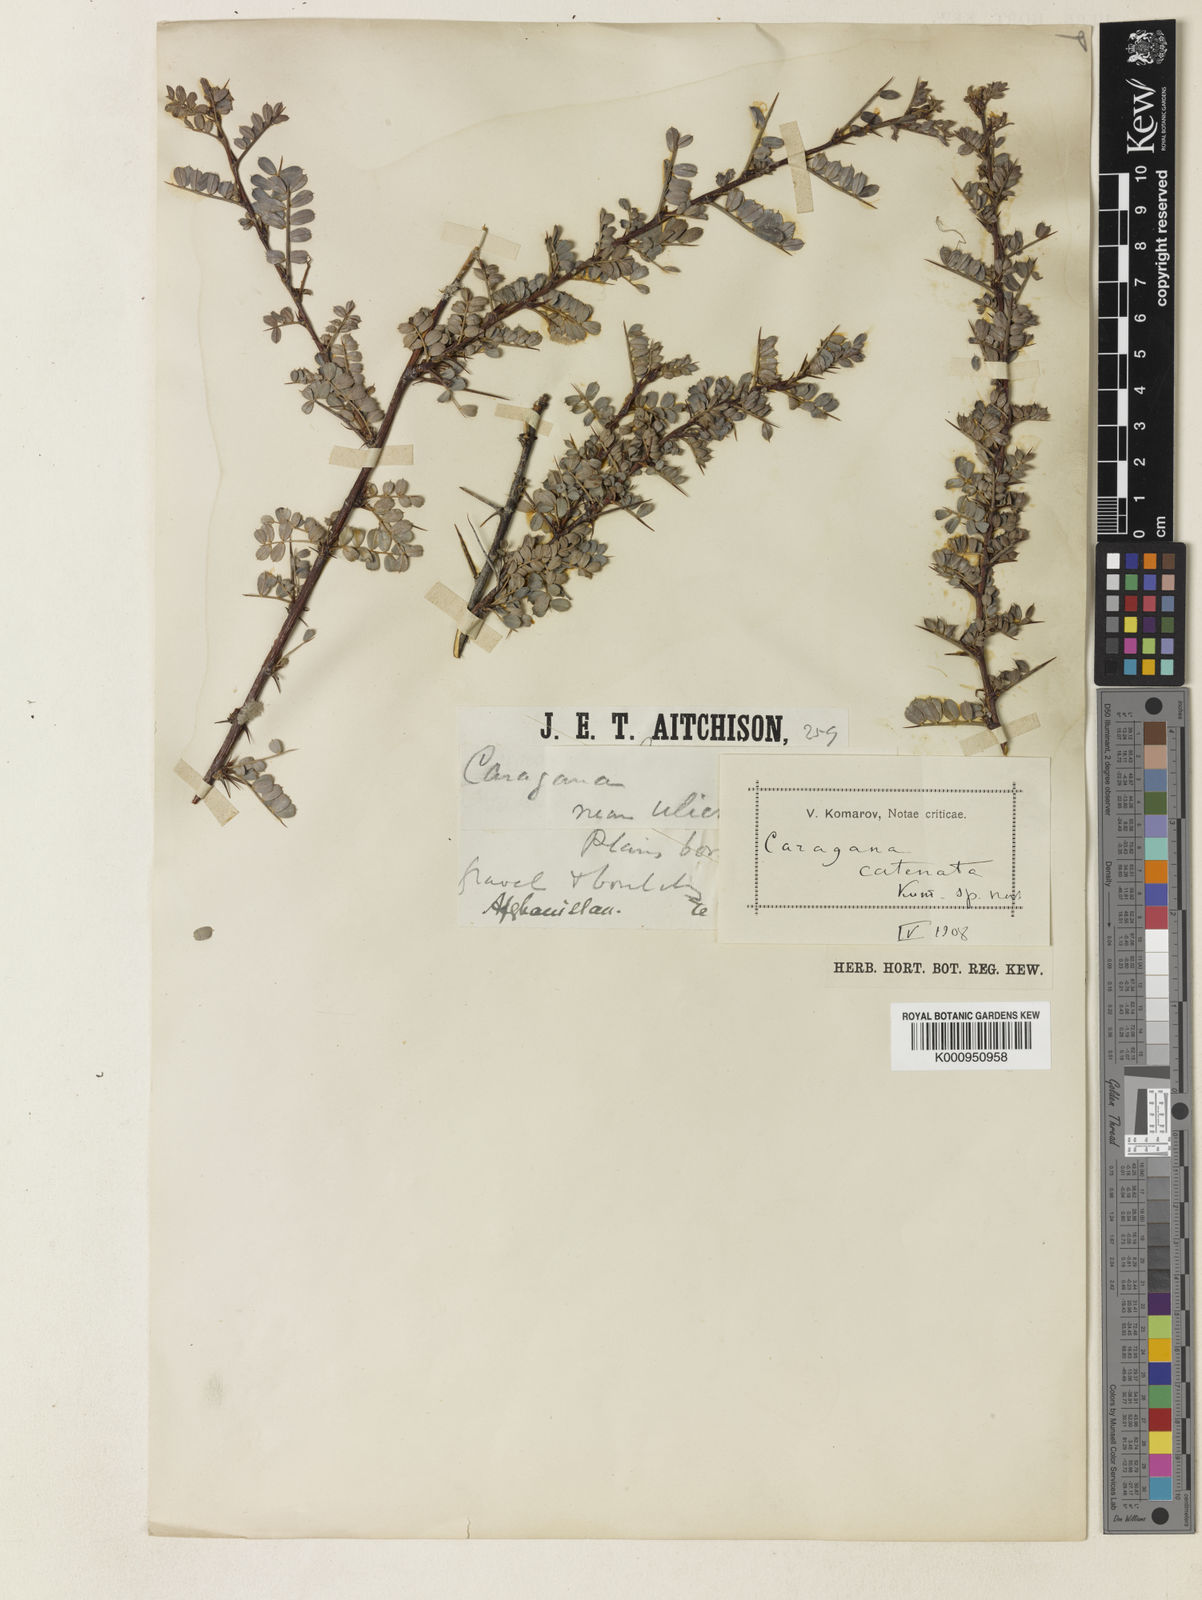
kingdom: Plantae
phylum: Tracheophyta
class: Magnoliopsida
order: Fabales
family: Fabaceae
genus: Caragana
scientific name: Caragana brevispina
